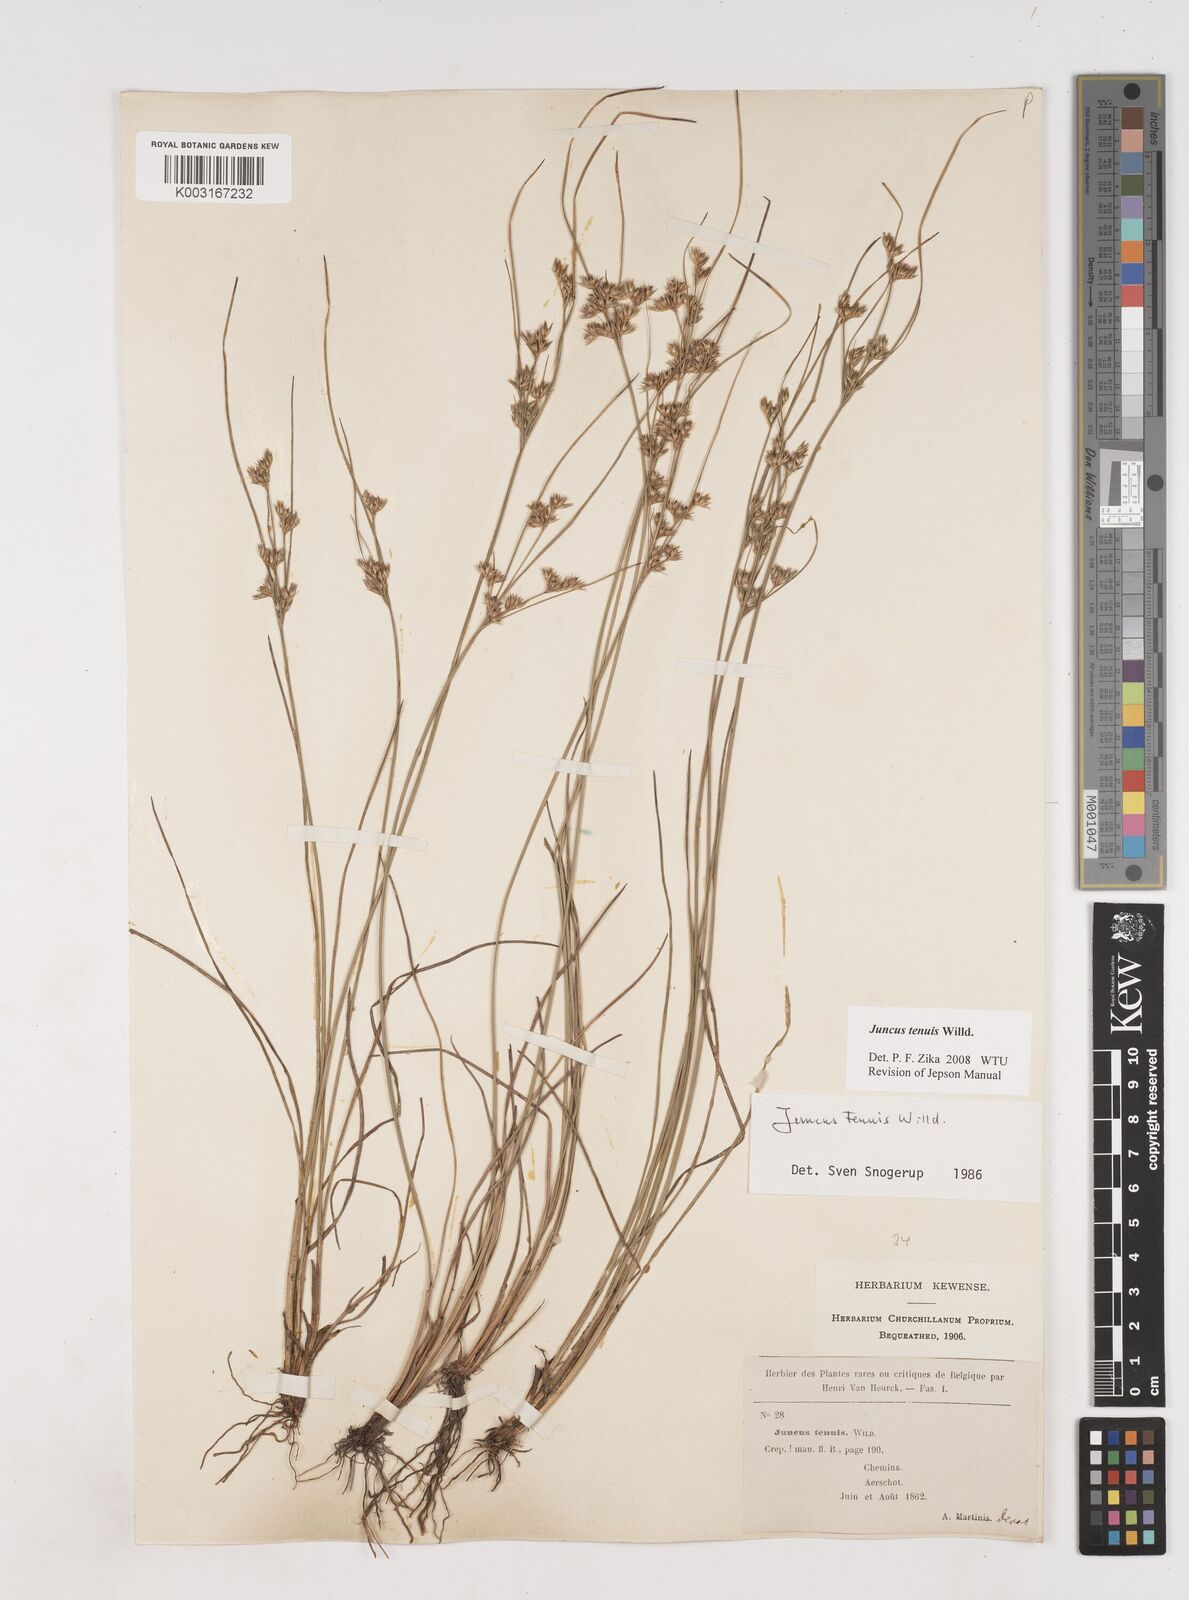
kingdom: Plantae
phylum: Tracheophyta
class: Liliopsida
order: Poales
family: Juncaceae
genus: Juncus
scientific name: Juncus tenuis
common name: Slender rush
